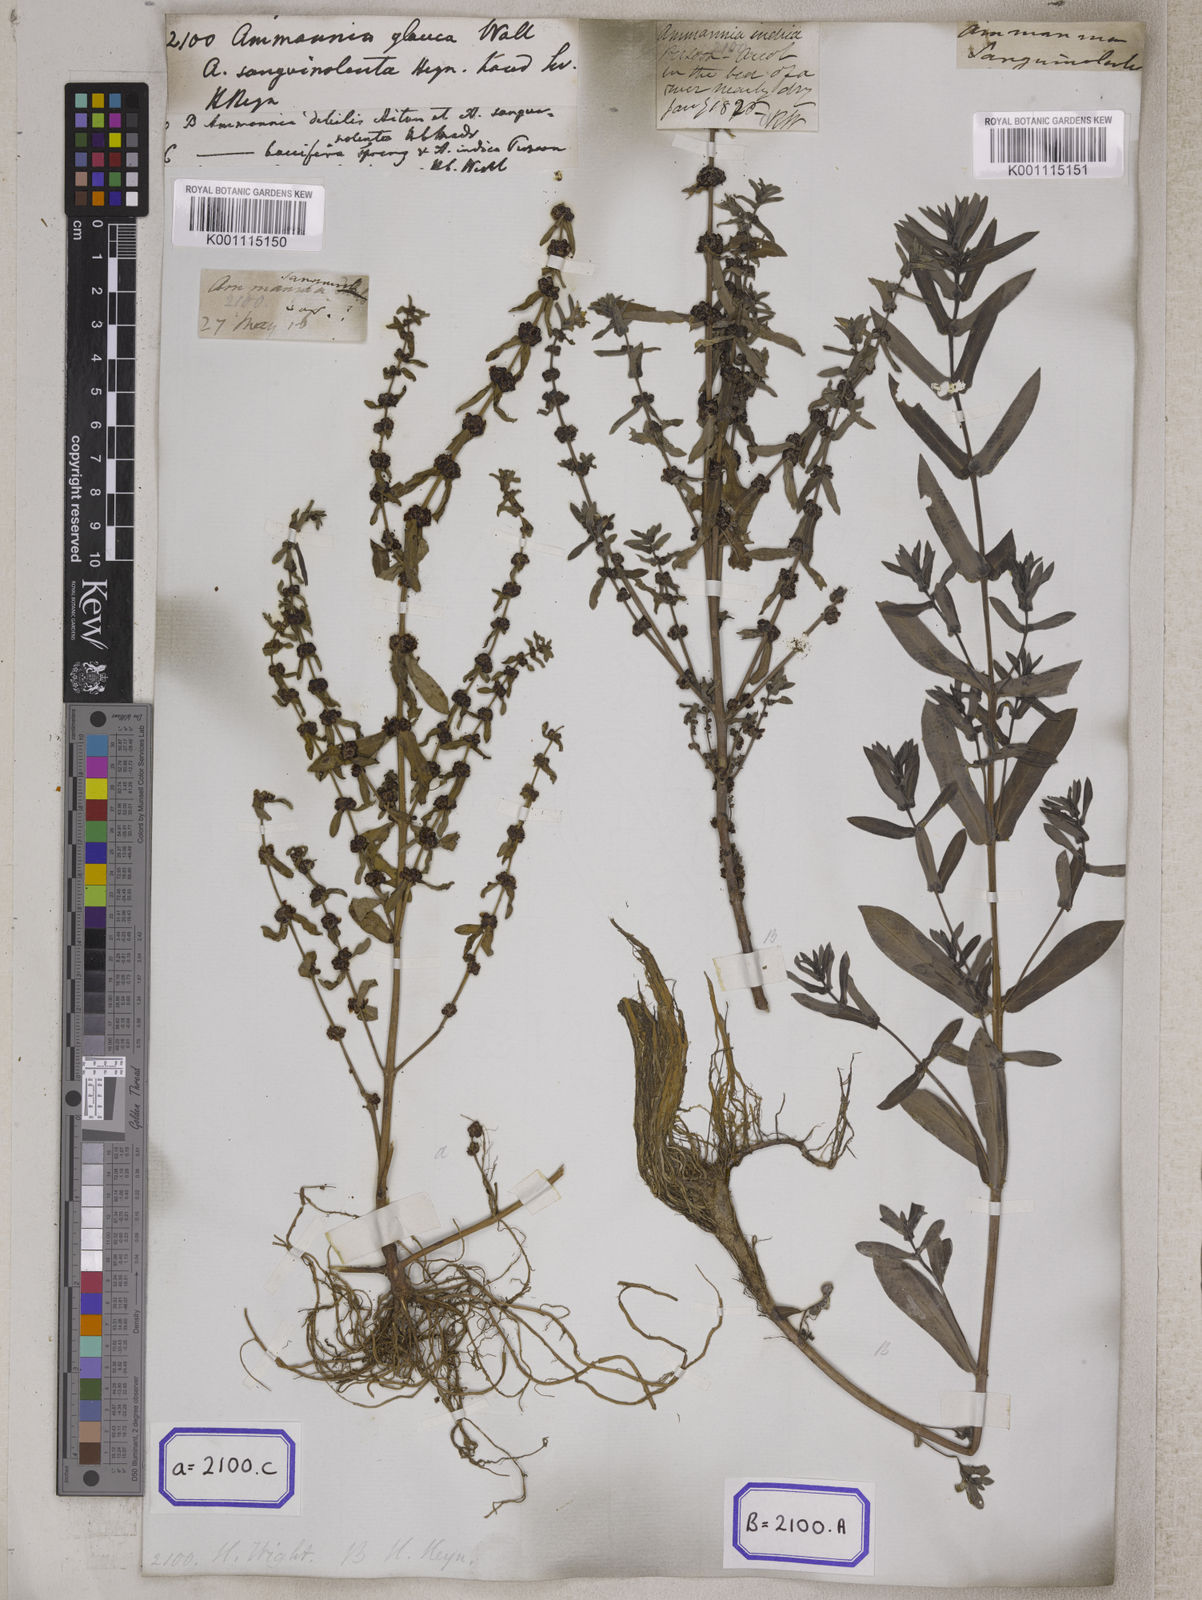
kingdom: Plantae
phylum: Tracheophyta
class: Magnoliopsida
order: Myrtales
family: Lythraceae
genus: Ammannia
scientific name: Ammannia
